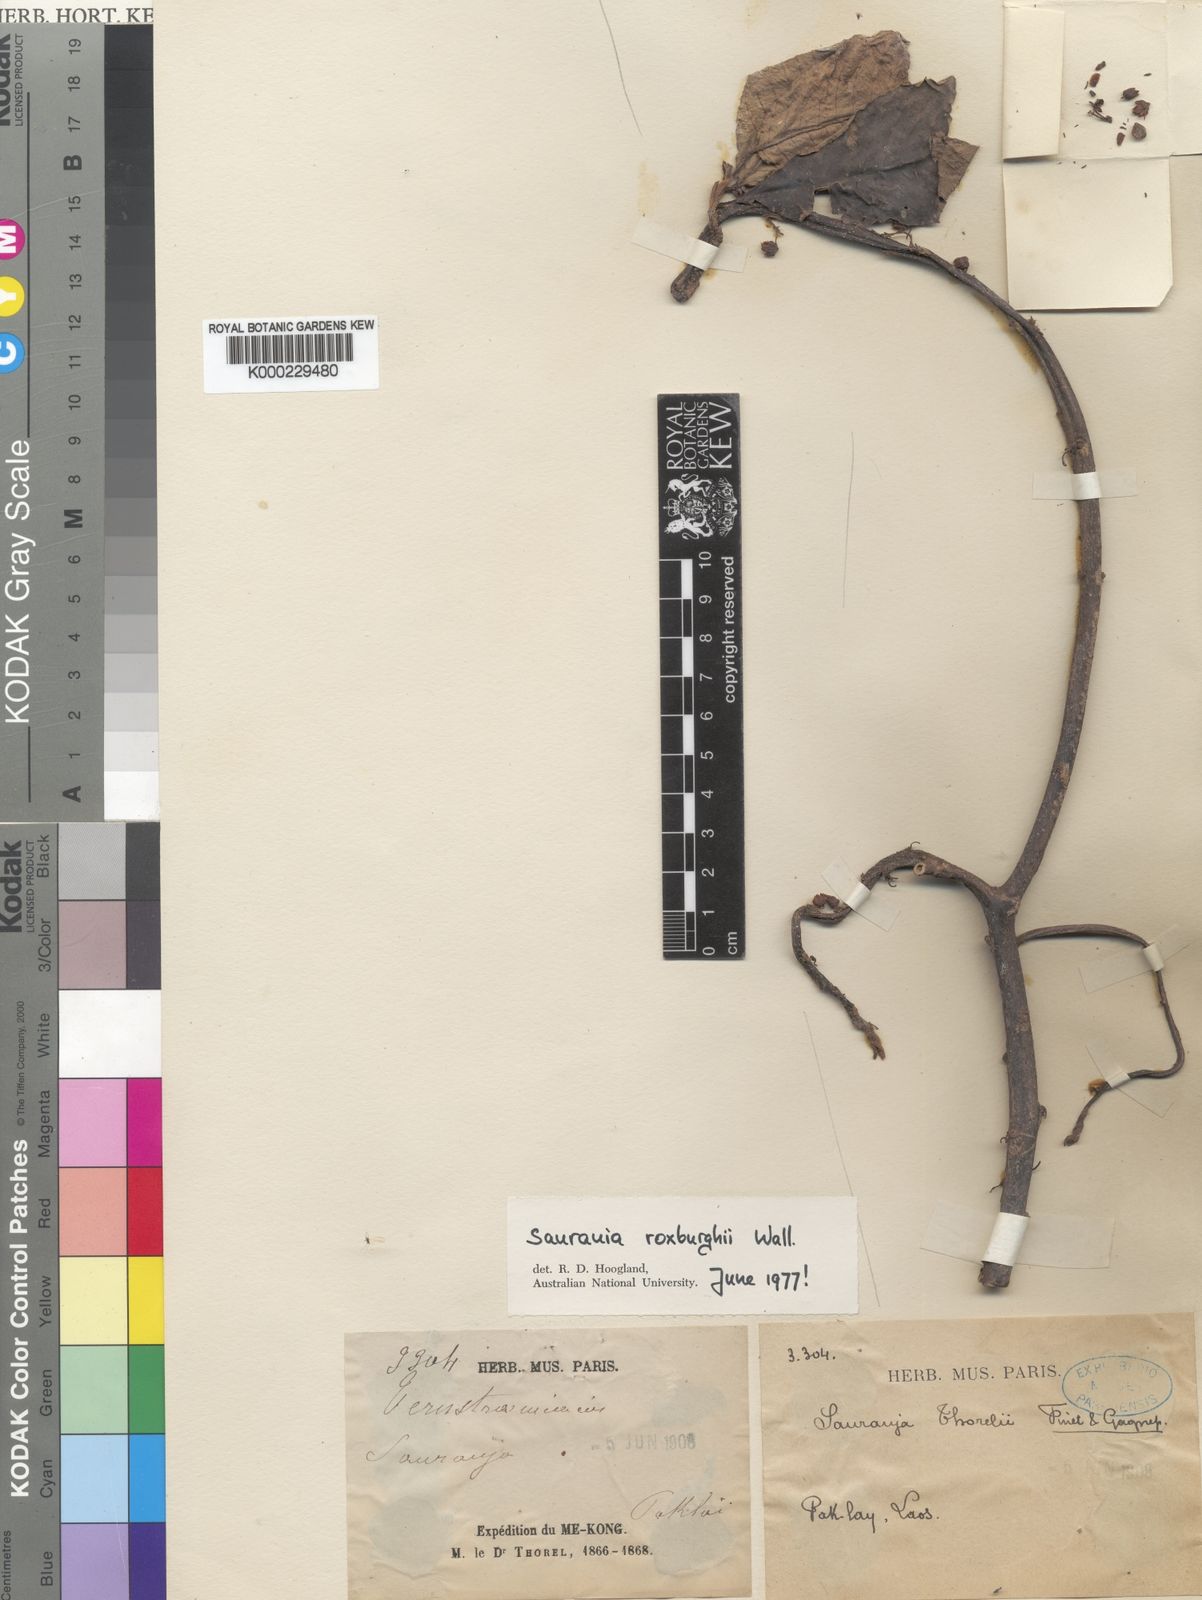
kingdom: Plantae
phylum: Tracheophyta
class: Magnoliopsida
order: Ericales
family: Actinidiaceae
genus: Saurauia
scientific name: Saurauia roxburghii
